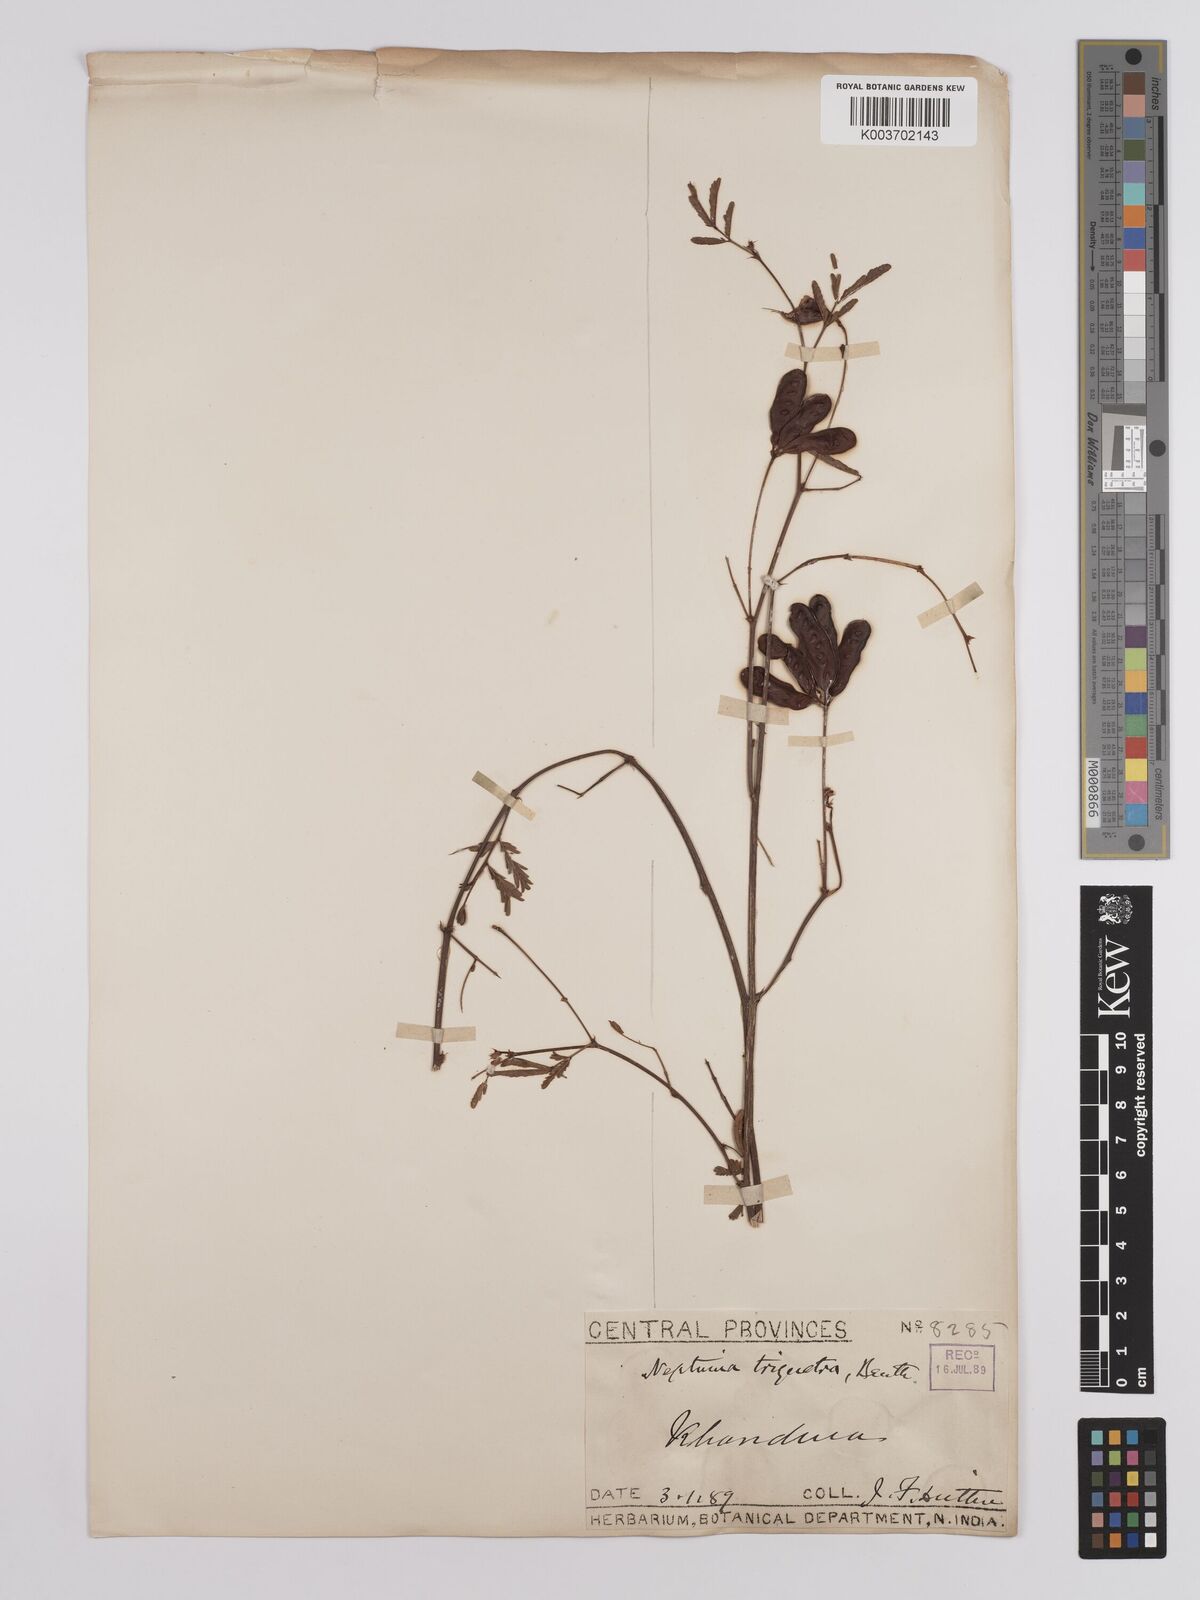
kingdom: Plantae
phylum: Tracheophyta
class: Magnoliopsida
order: Fabales
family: Fabaceae
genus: Neptunia
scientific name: Neptunia triquetra
